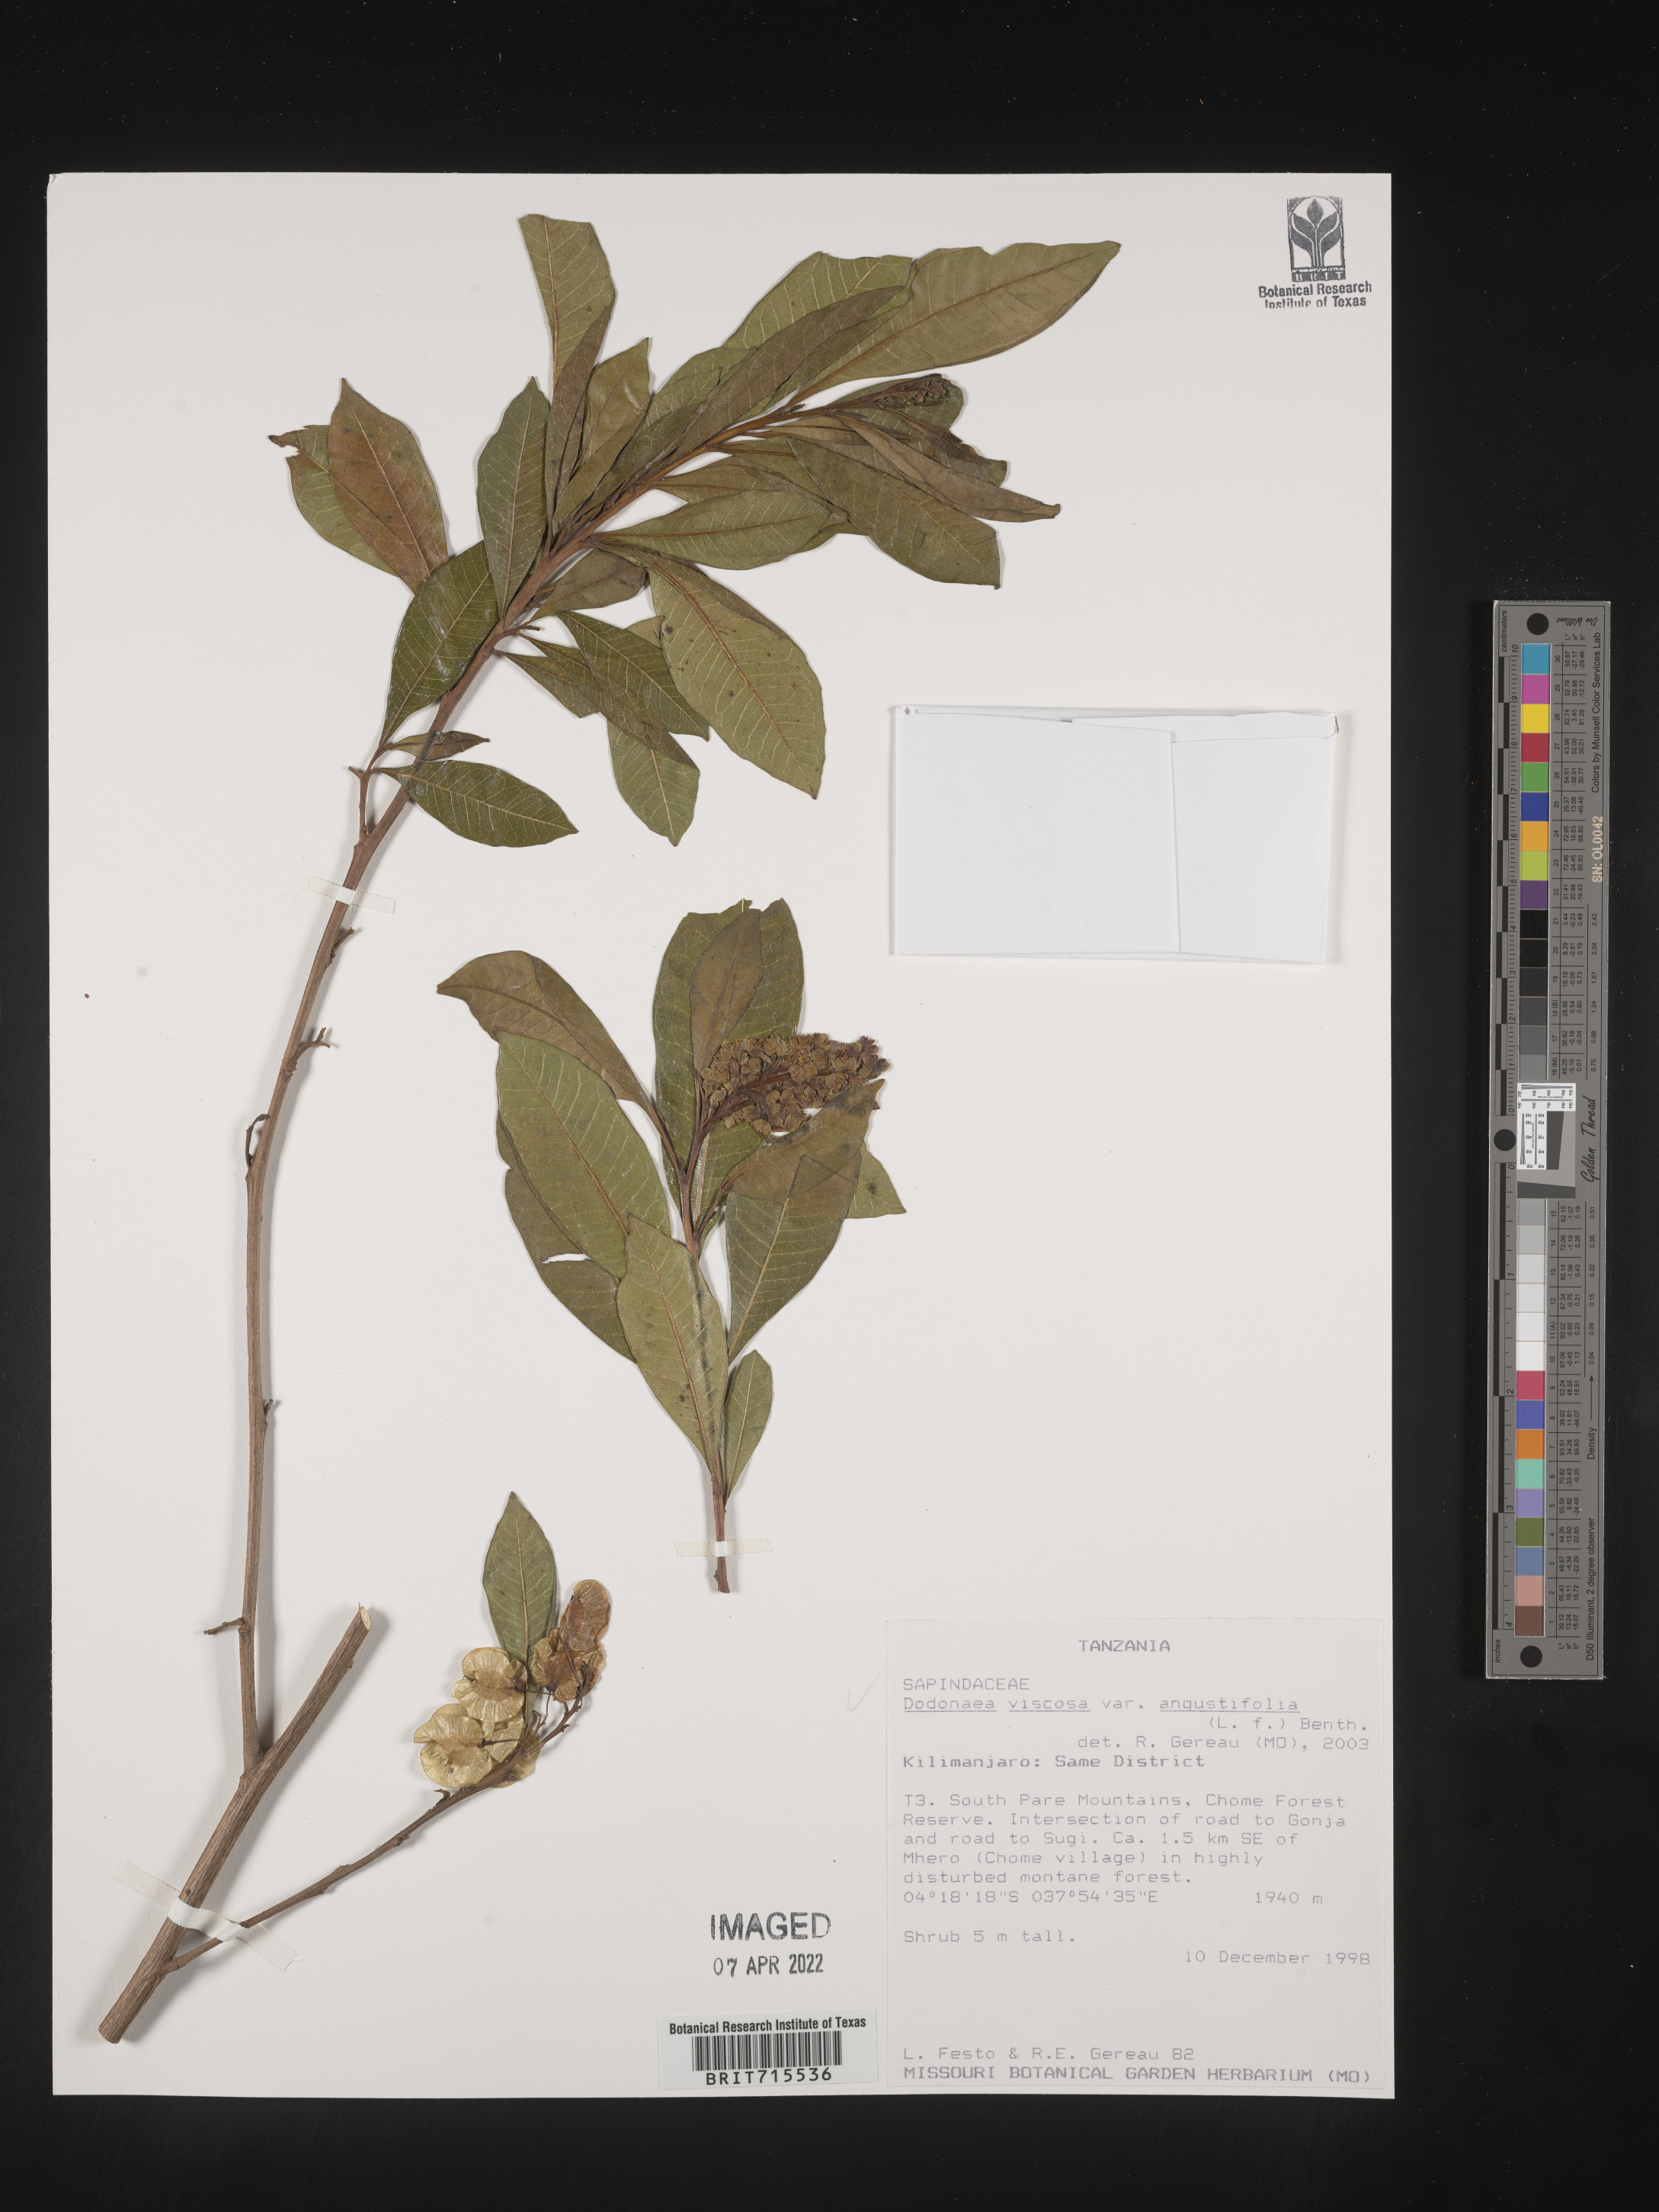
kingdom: Plantae
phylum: Tracheophyta
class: Magnoliopsida
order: Sapindales
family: Sapindaceae
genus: Dodonaea
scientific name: Dodonaea viscosa
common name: Hopbush
